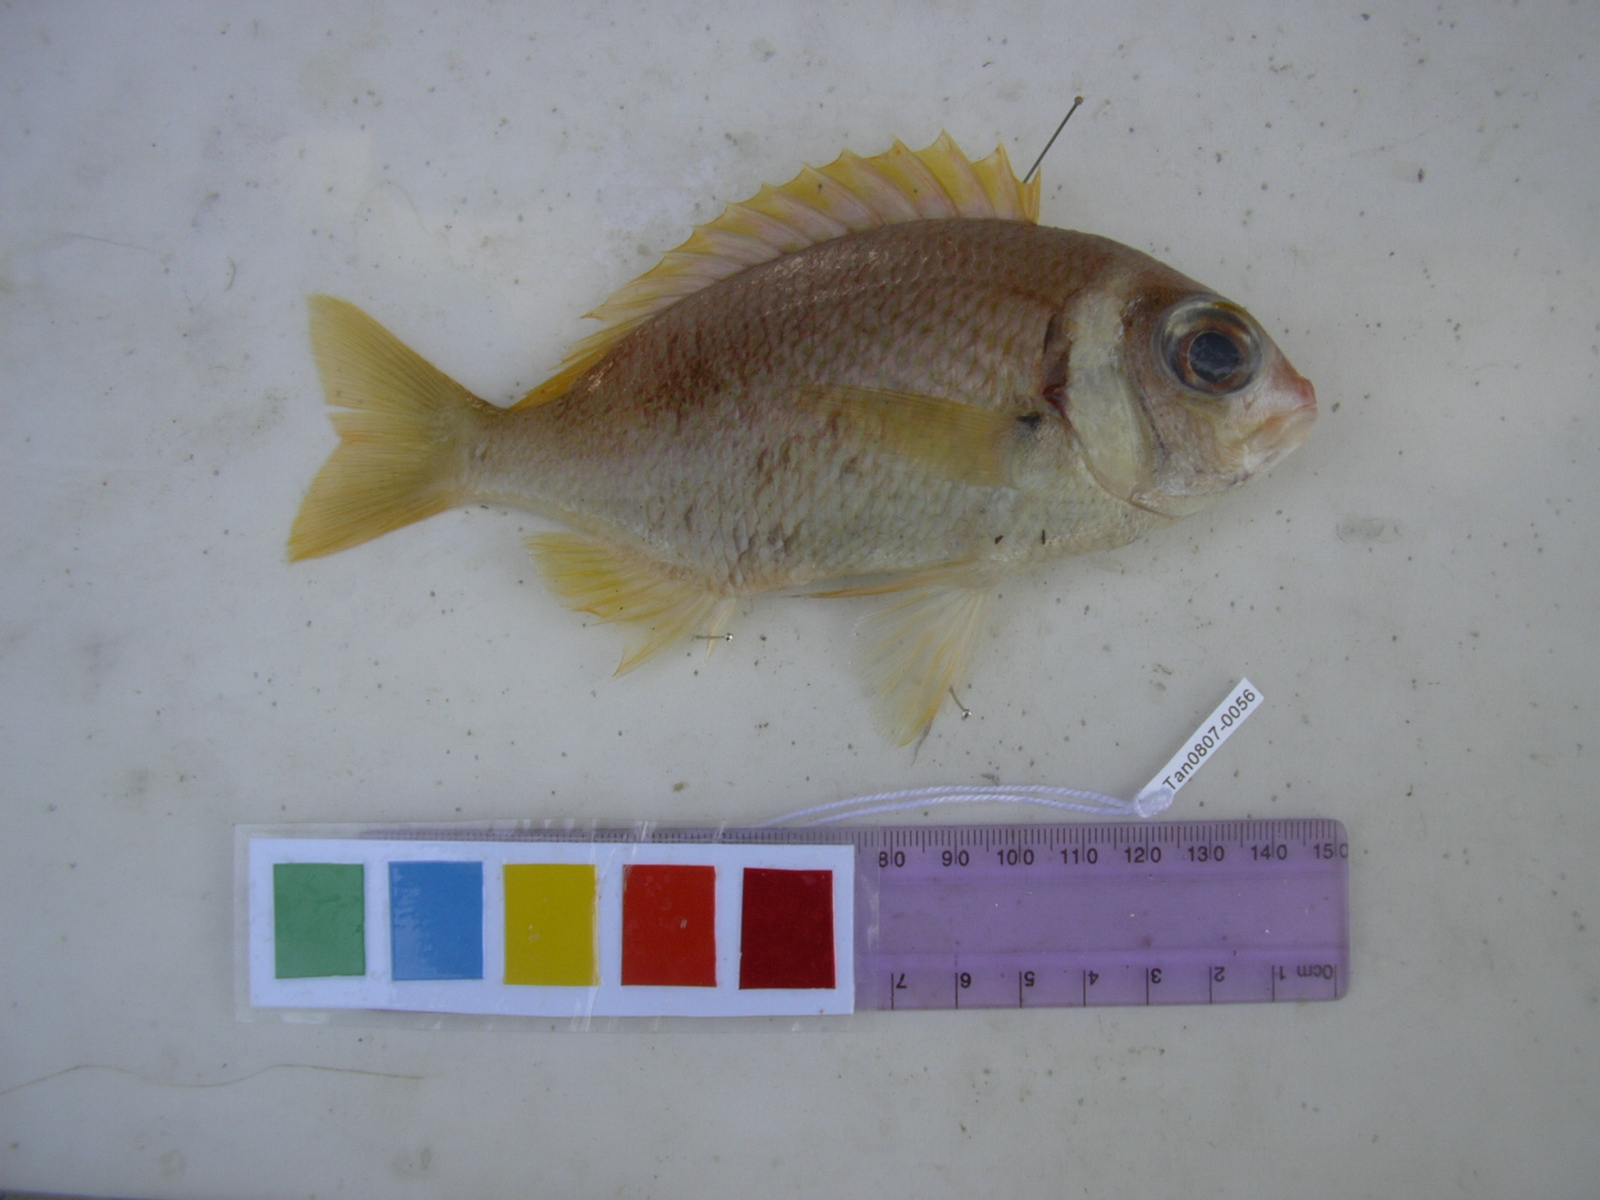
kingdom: Animalia
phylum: Chordata
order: Perciformes
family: Nemipteridae
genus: Scolopsis
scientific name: Scolopsis vosmeri
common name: Whitecheek monocle bream
